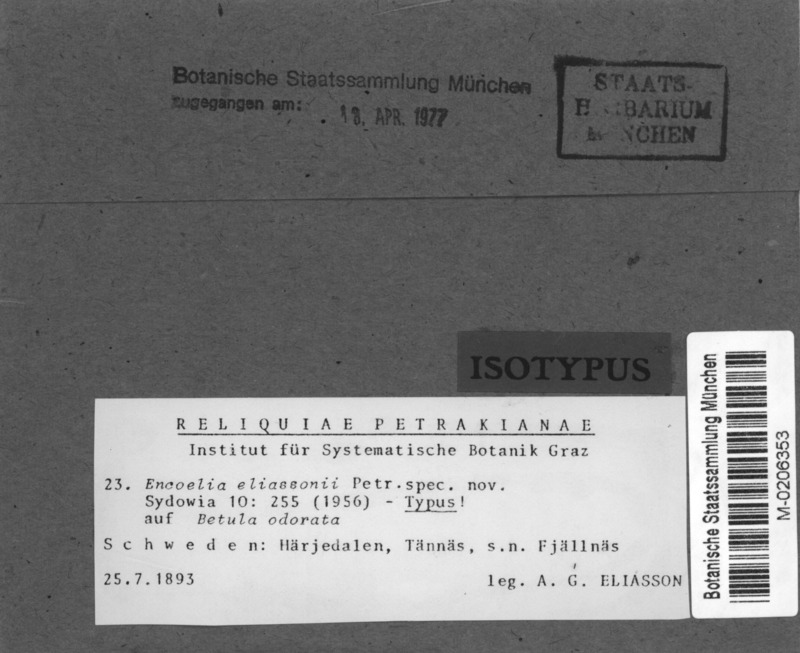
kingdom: Fungi
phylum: Ascomycota
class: Leotiomycetes
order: Helotiales
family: Cenangiaceae
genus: Encoelia
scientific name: Encoelia eliassonii
